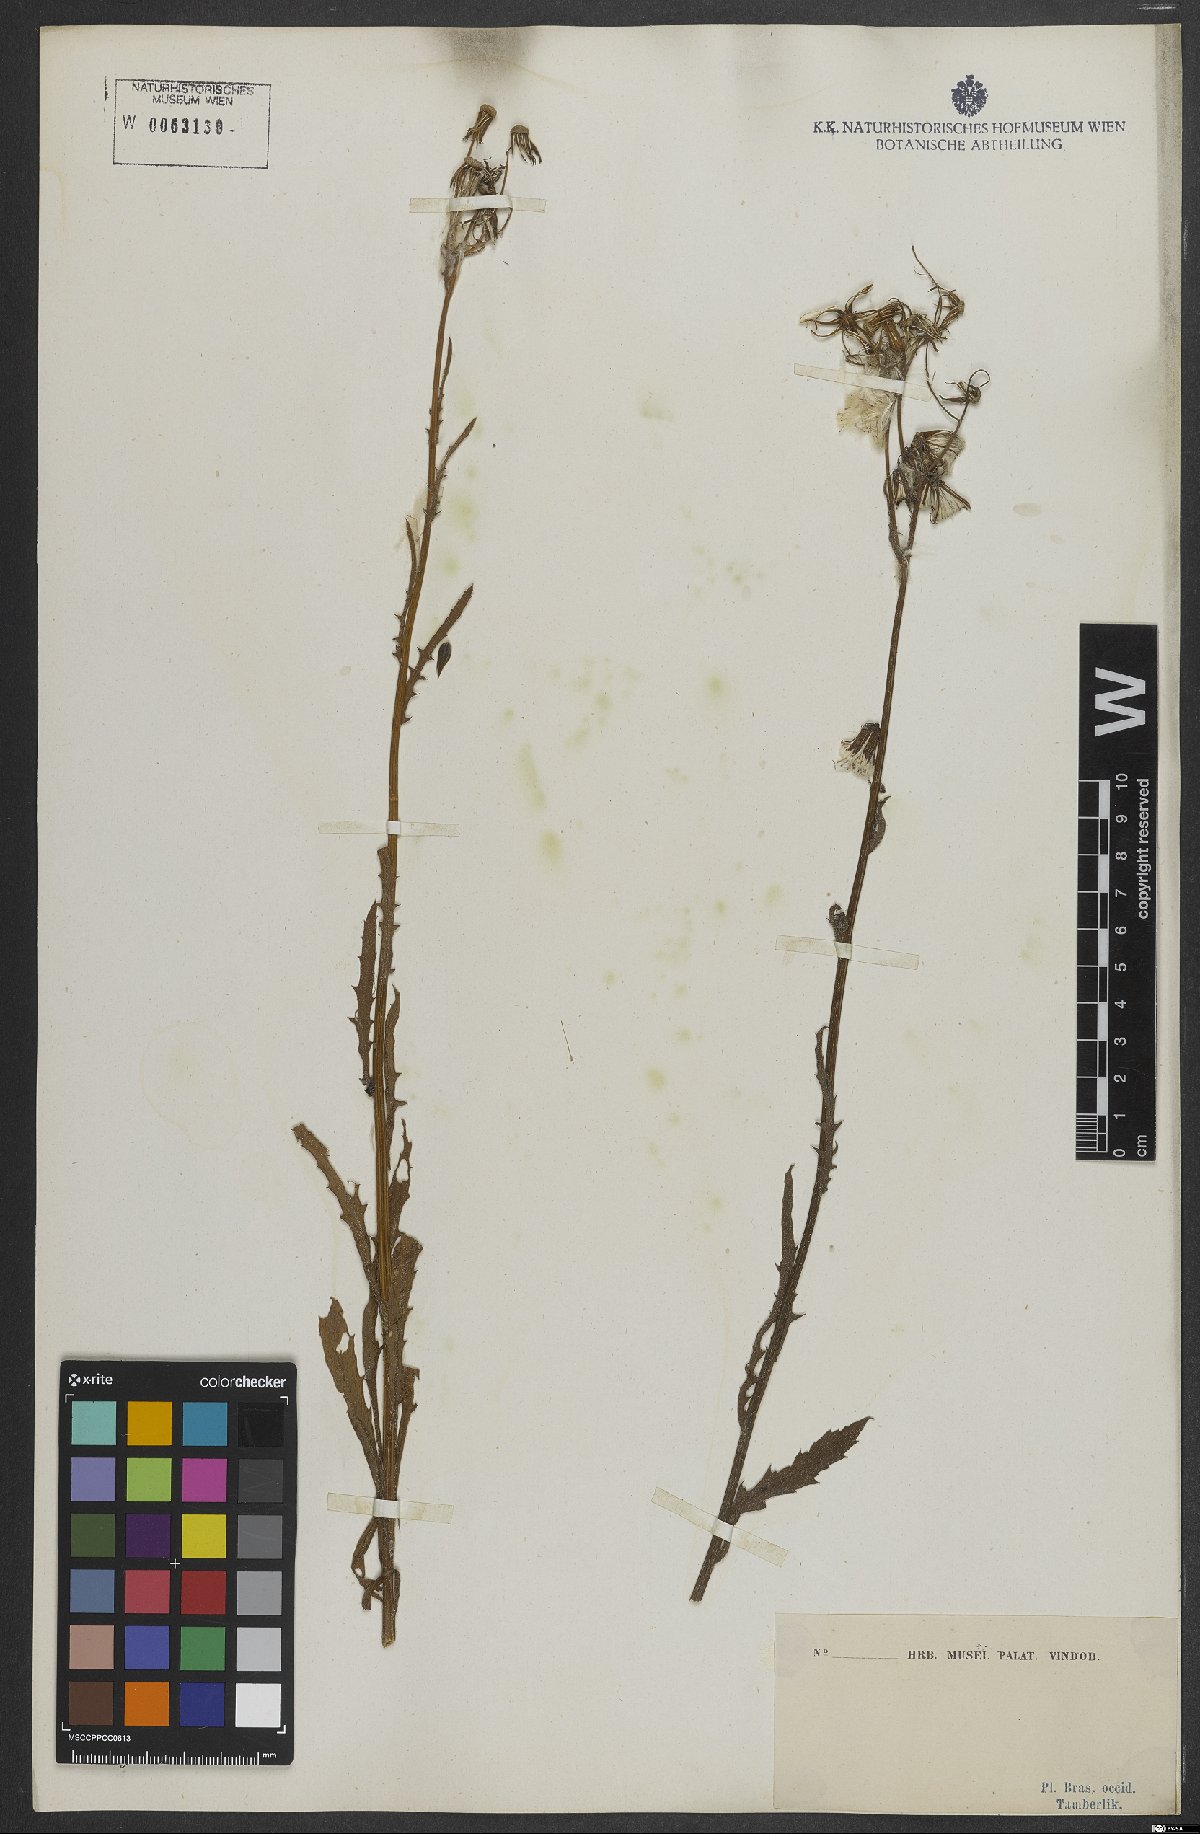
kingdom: Plantae
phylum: Tracheophyta
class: Magnoliopsida
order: Asterales
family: Asteraceae
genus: Erechtites
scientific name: Erechtites hieraciifolius
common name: American burnweed
